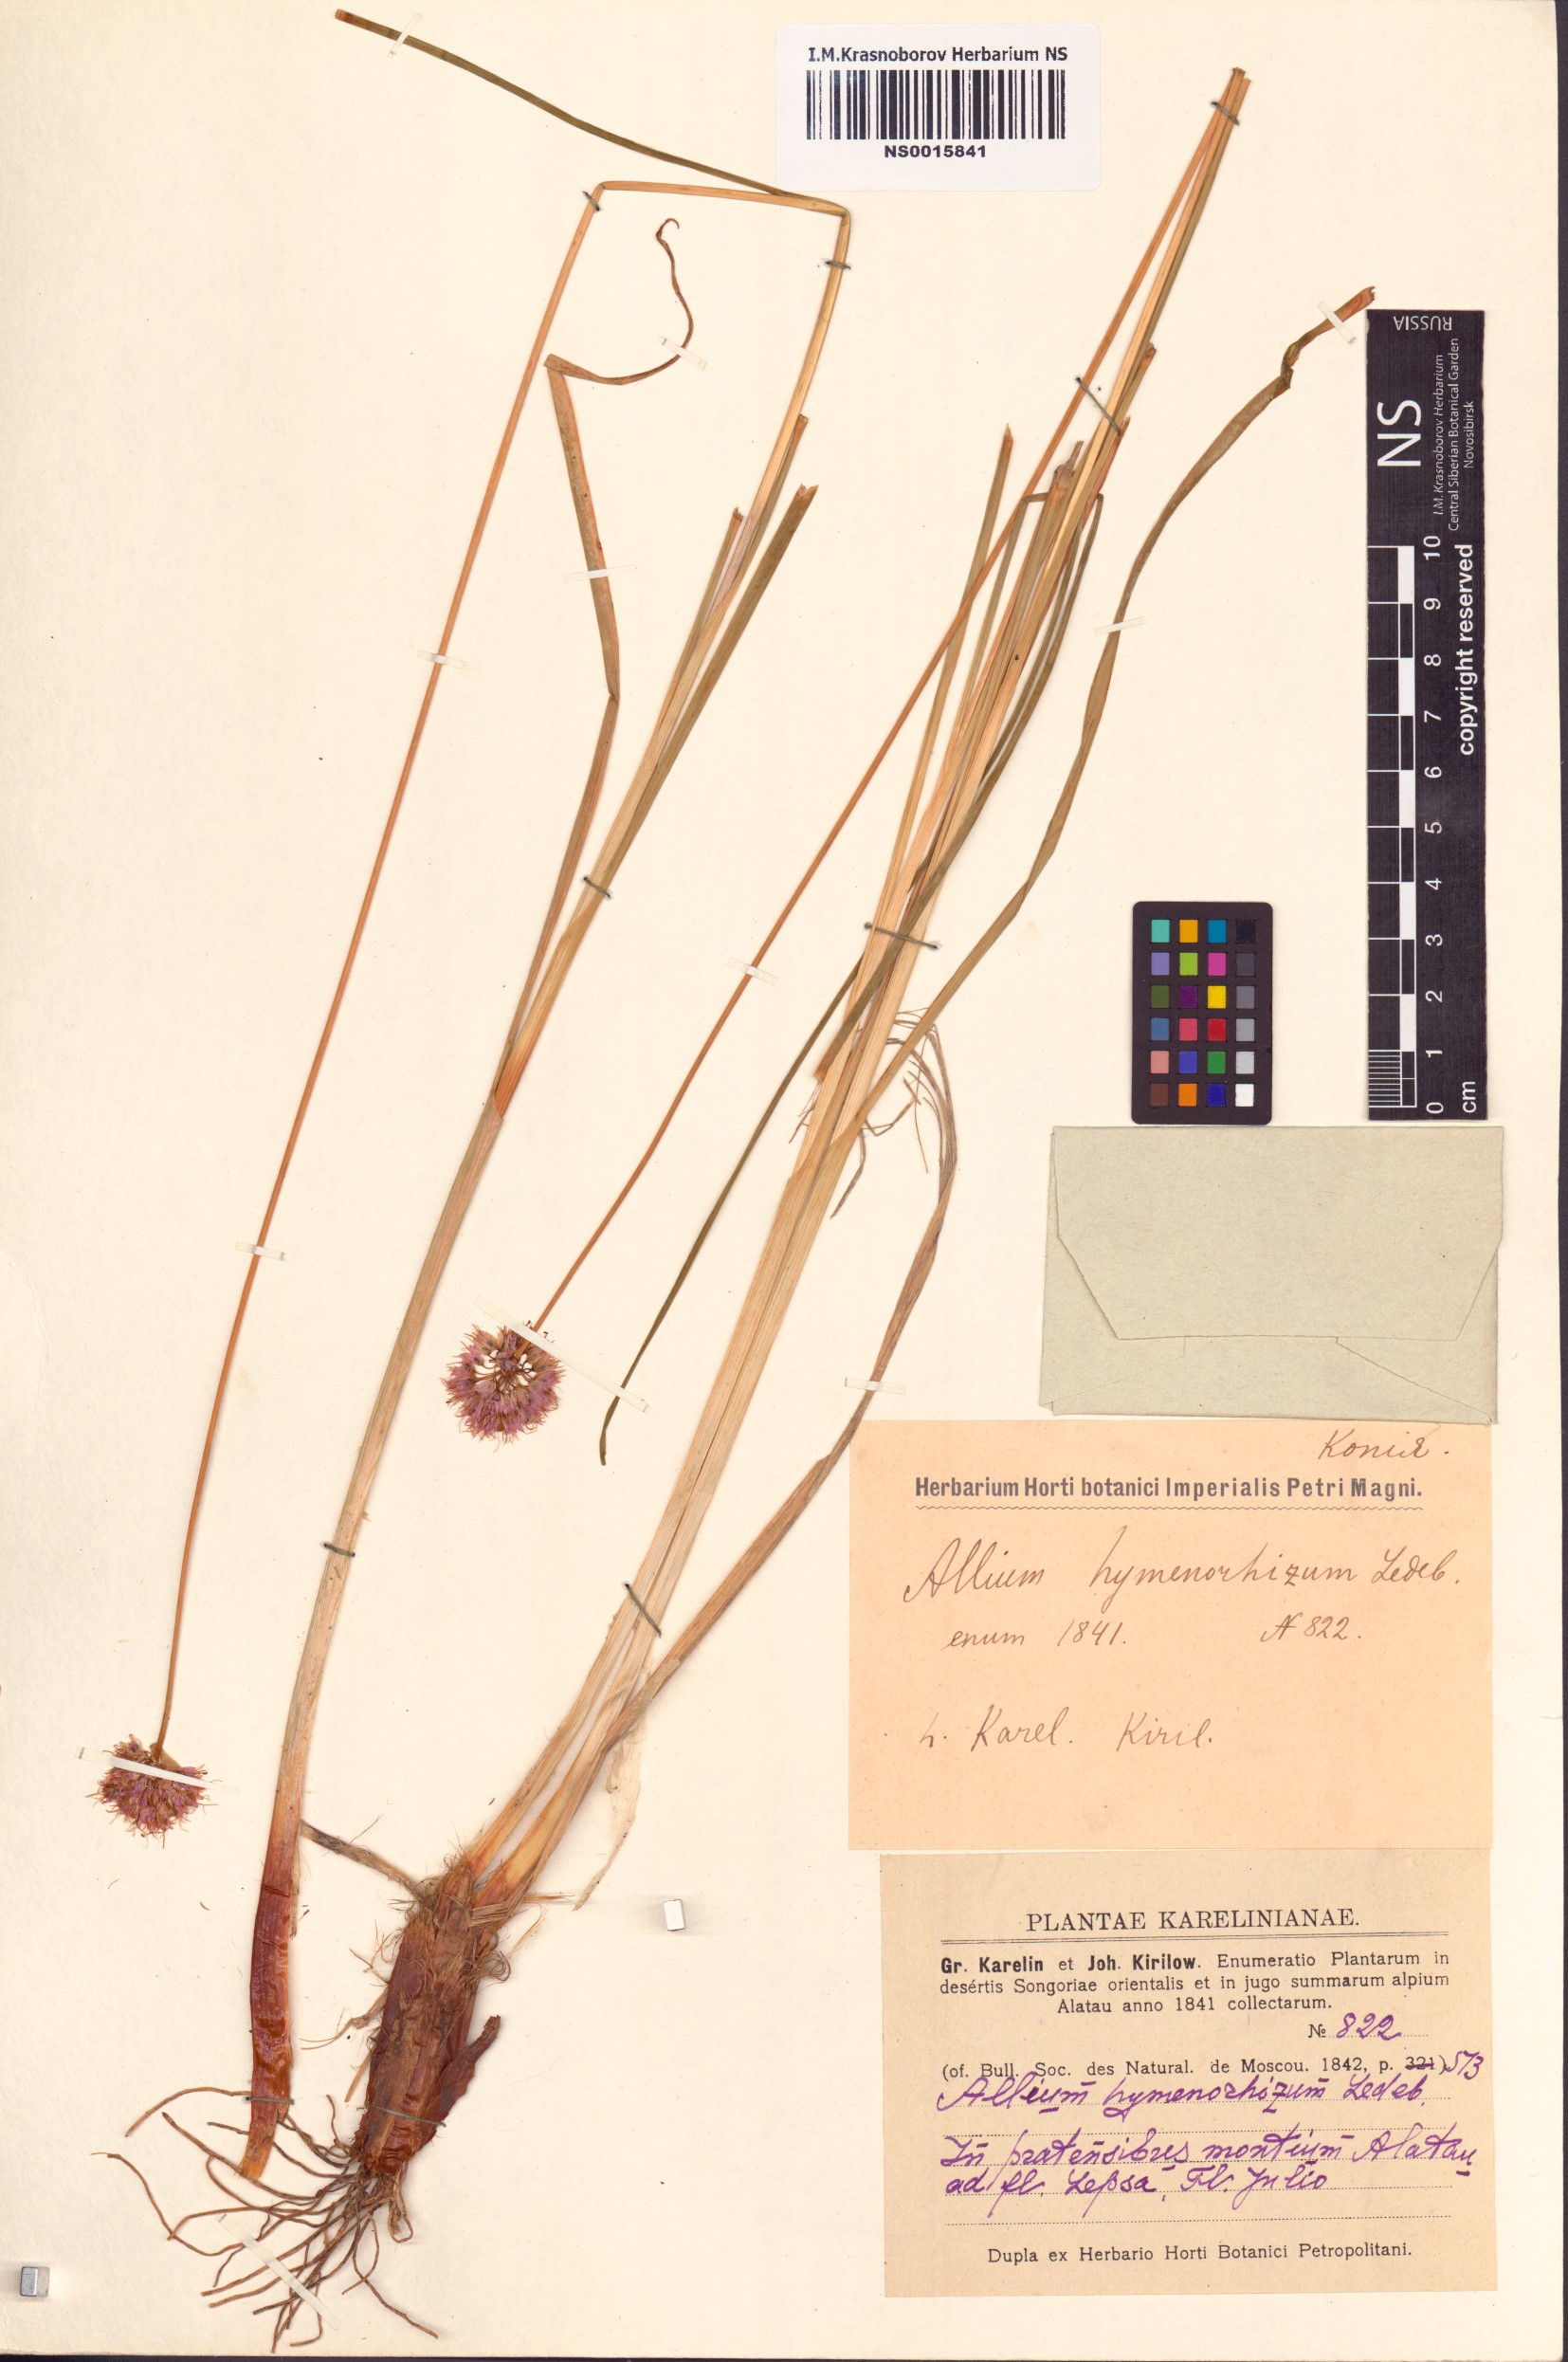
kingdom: Plantae
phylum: Tracheophyta
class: Liliopsida
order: Asparagales
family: Amaryllidaceae
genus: Allium
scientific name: Allium hymenorhizum
